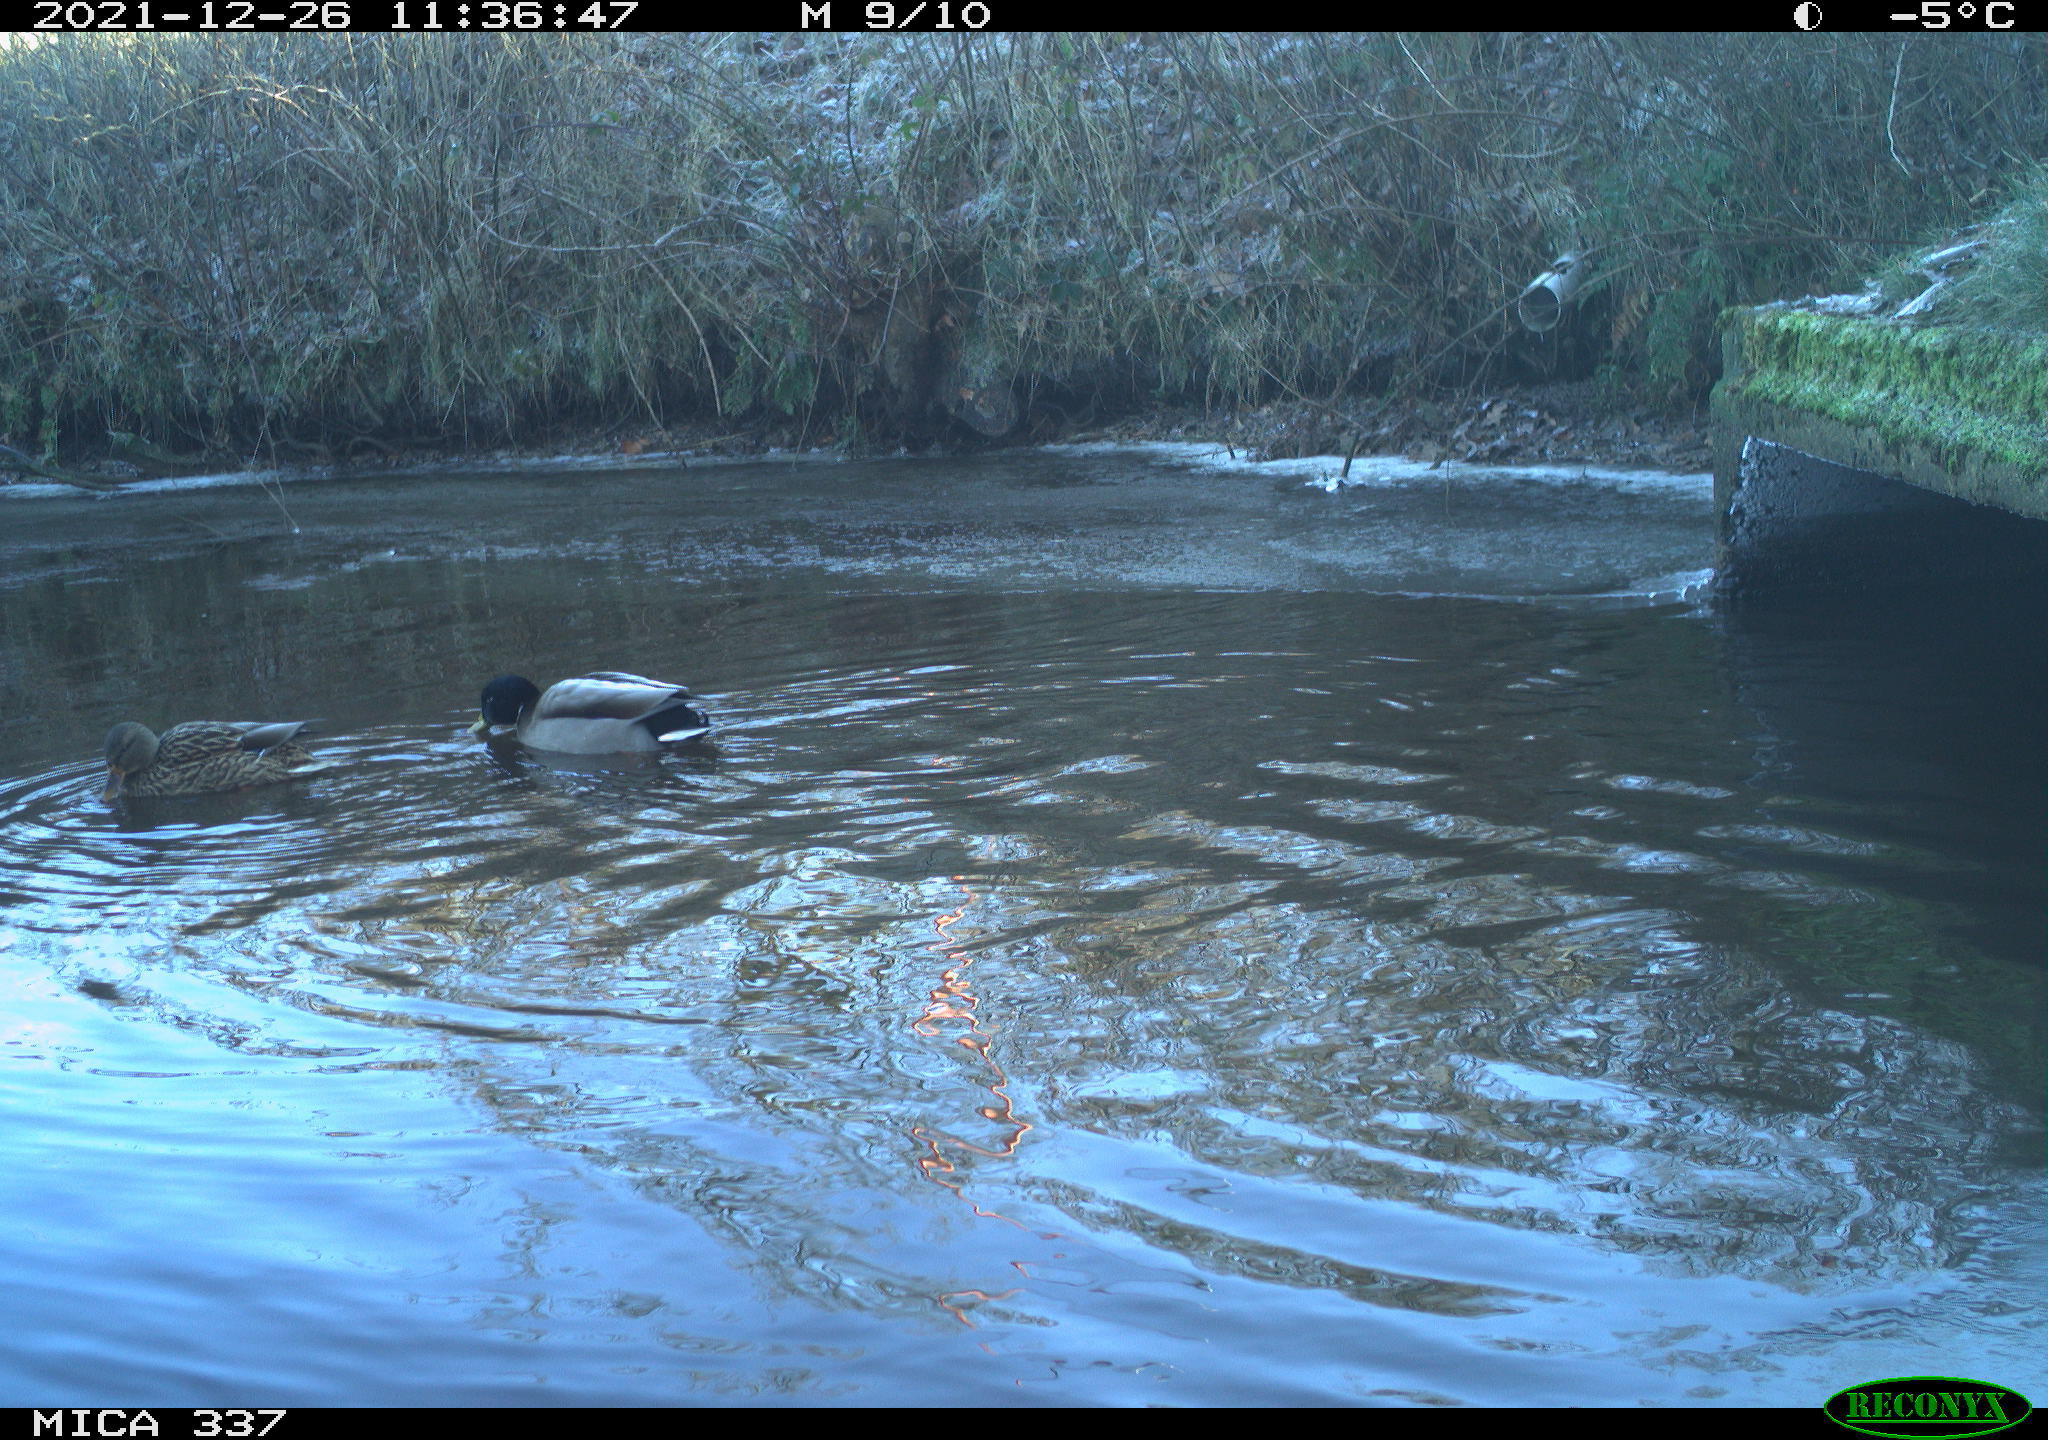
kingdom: Animalia
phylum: Chordata
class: Aves
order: Anseriformes
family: Anatidae
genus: Anas
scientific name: Anas platyrhynchos
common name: Mallard
